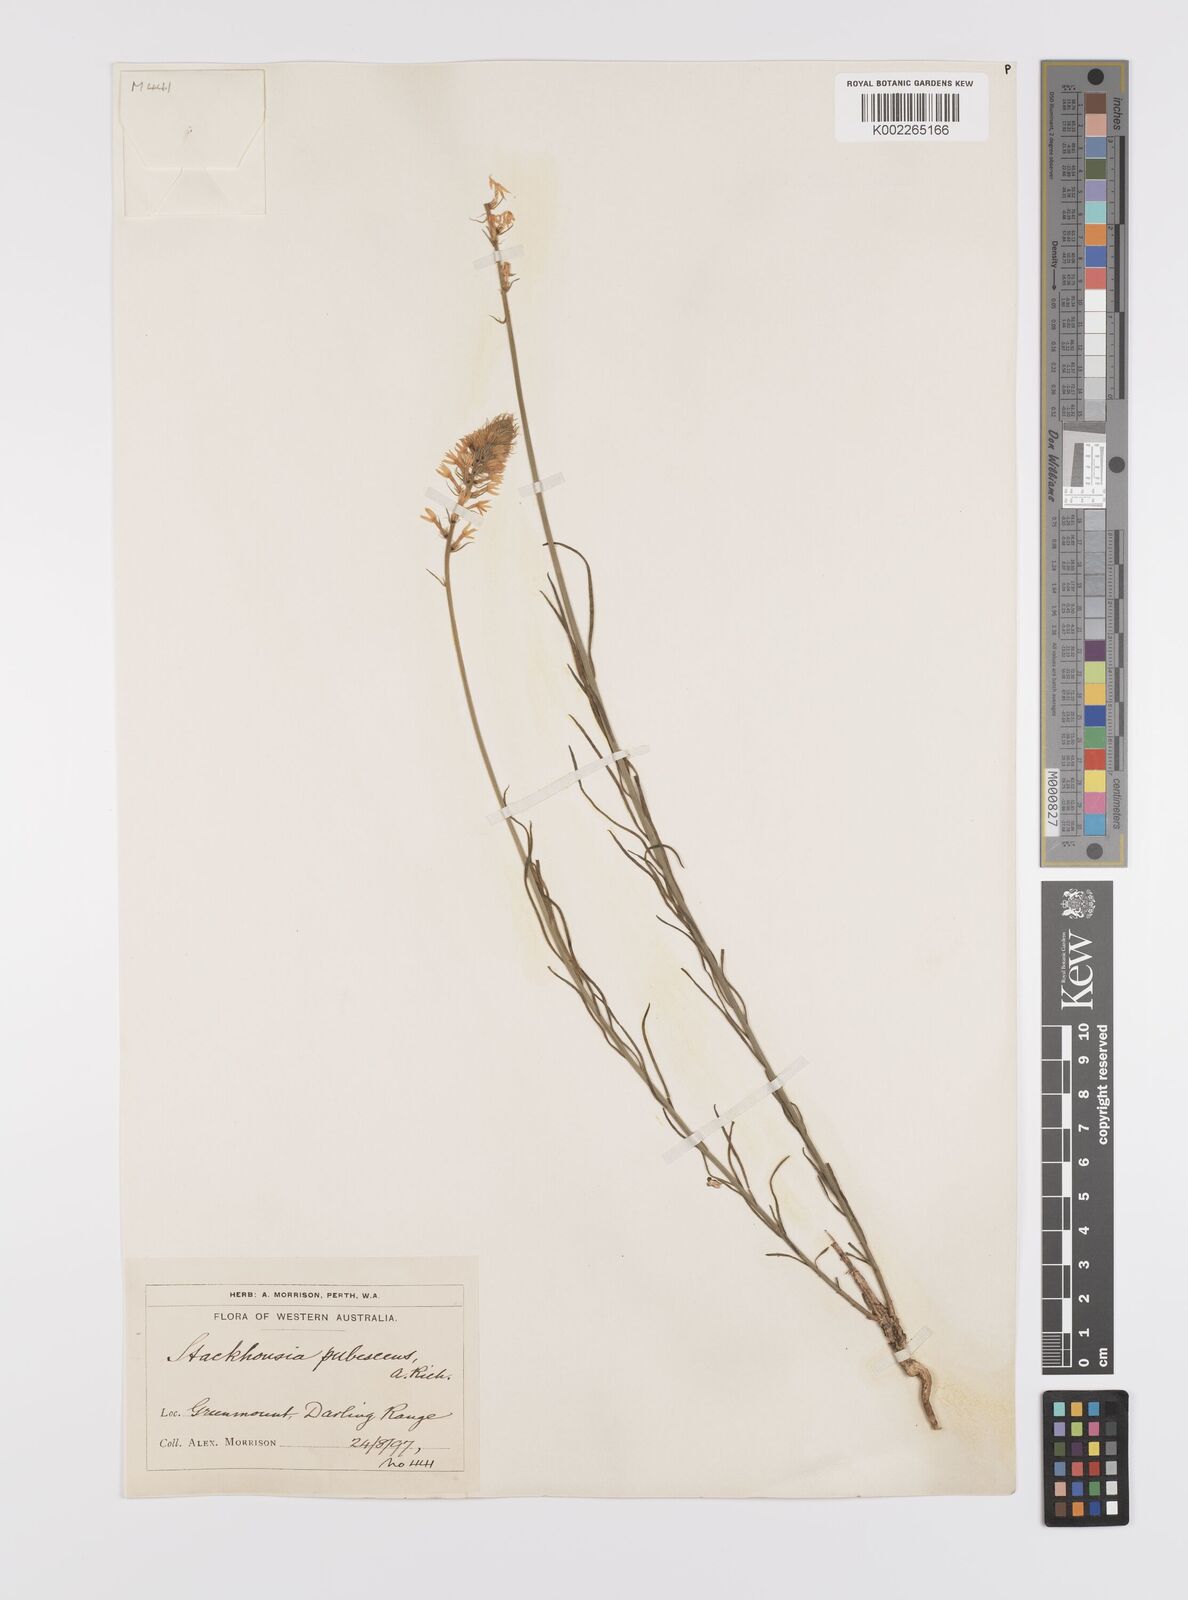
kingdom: Plantae
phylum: Tracheophyta
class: Magnoliopsida
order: Celastrales
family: Celastraceae
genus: Stackhousia
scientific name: Stackhousia monogyna
